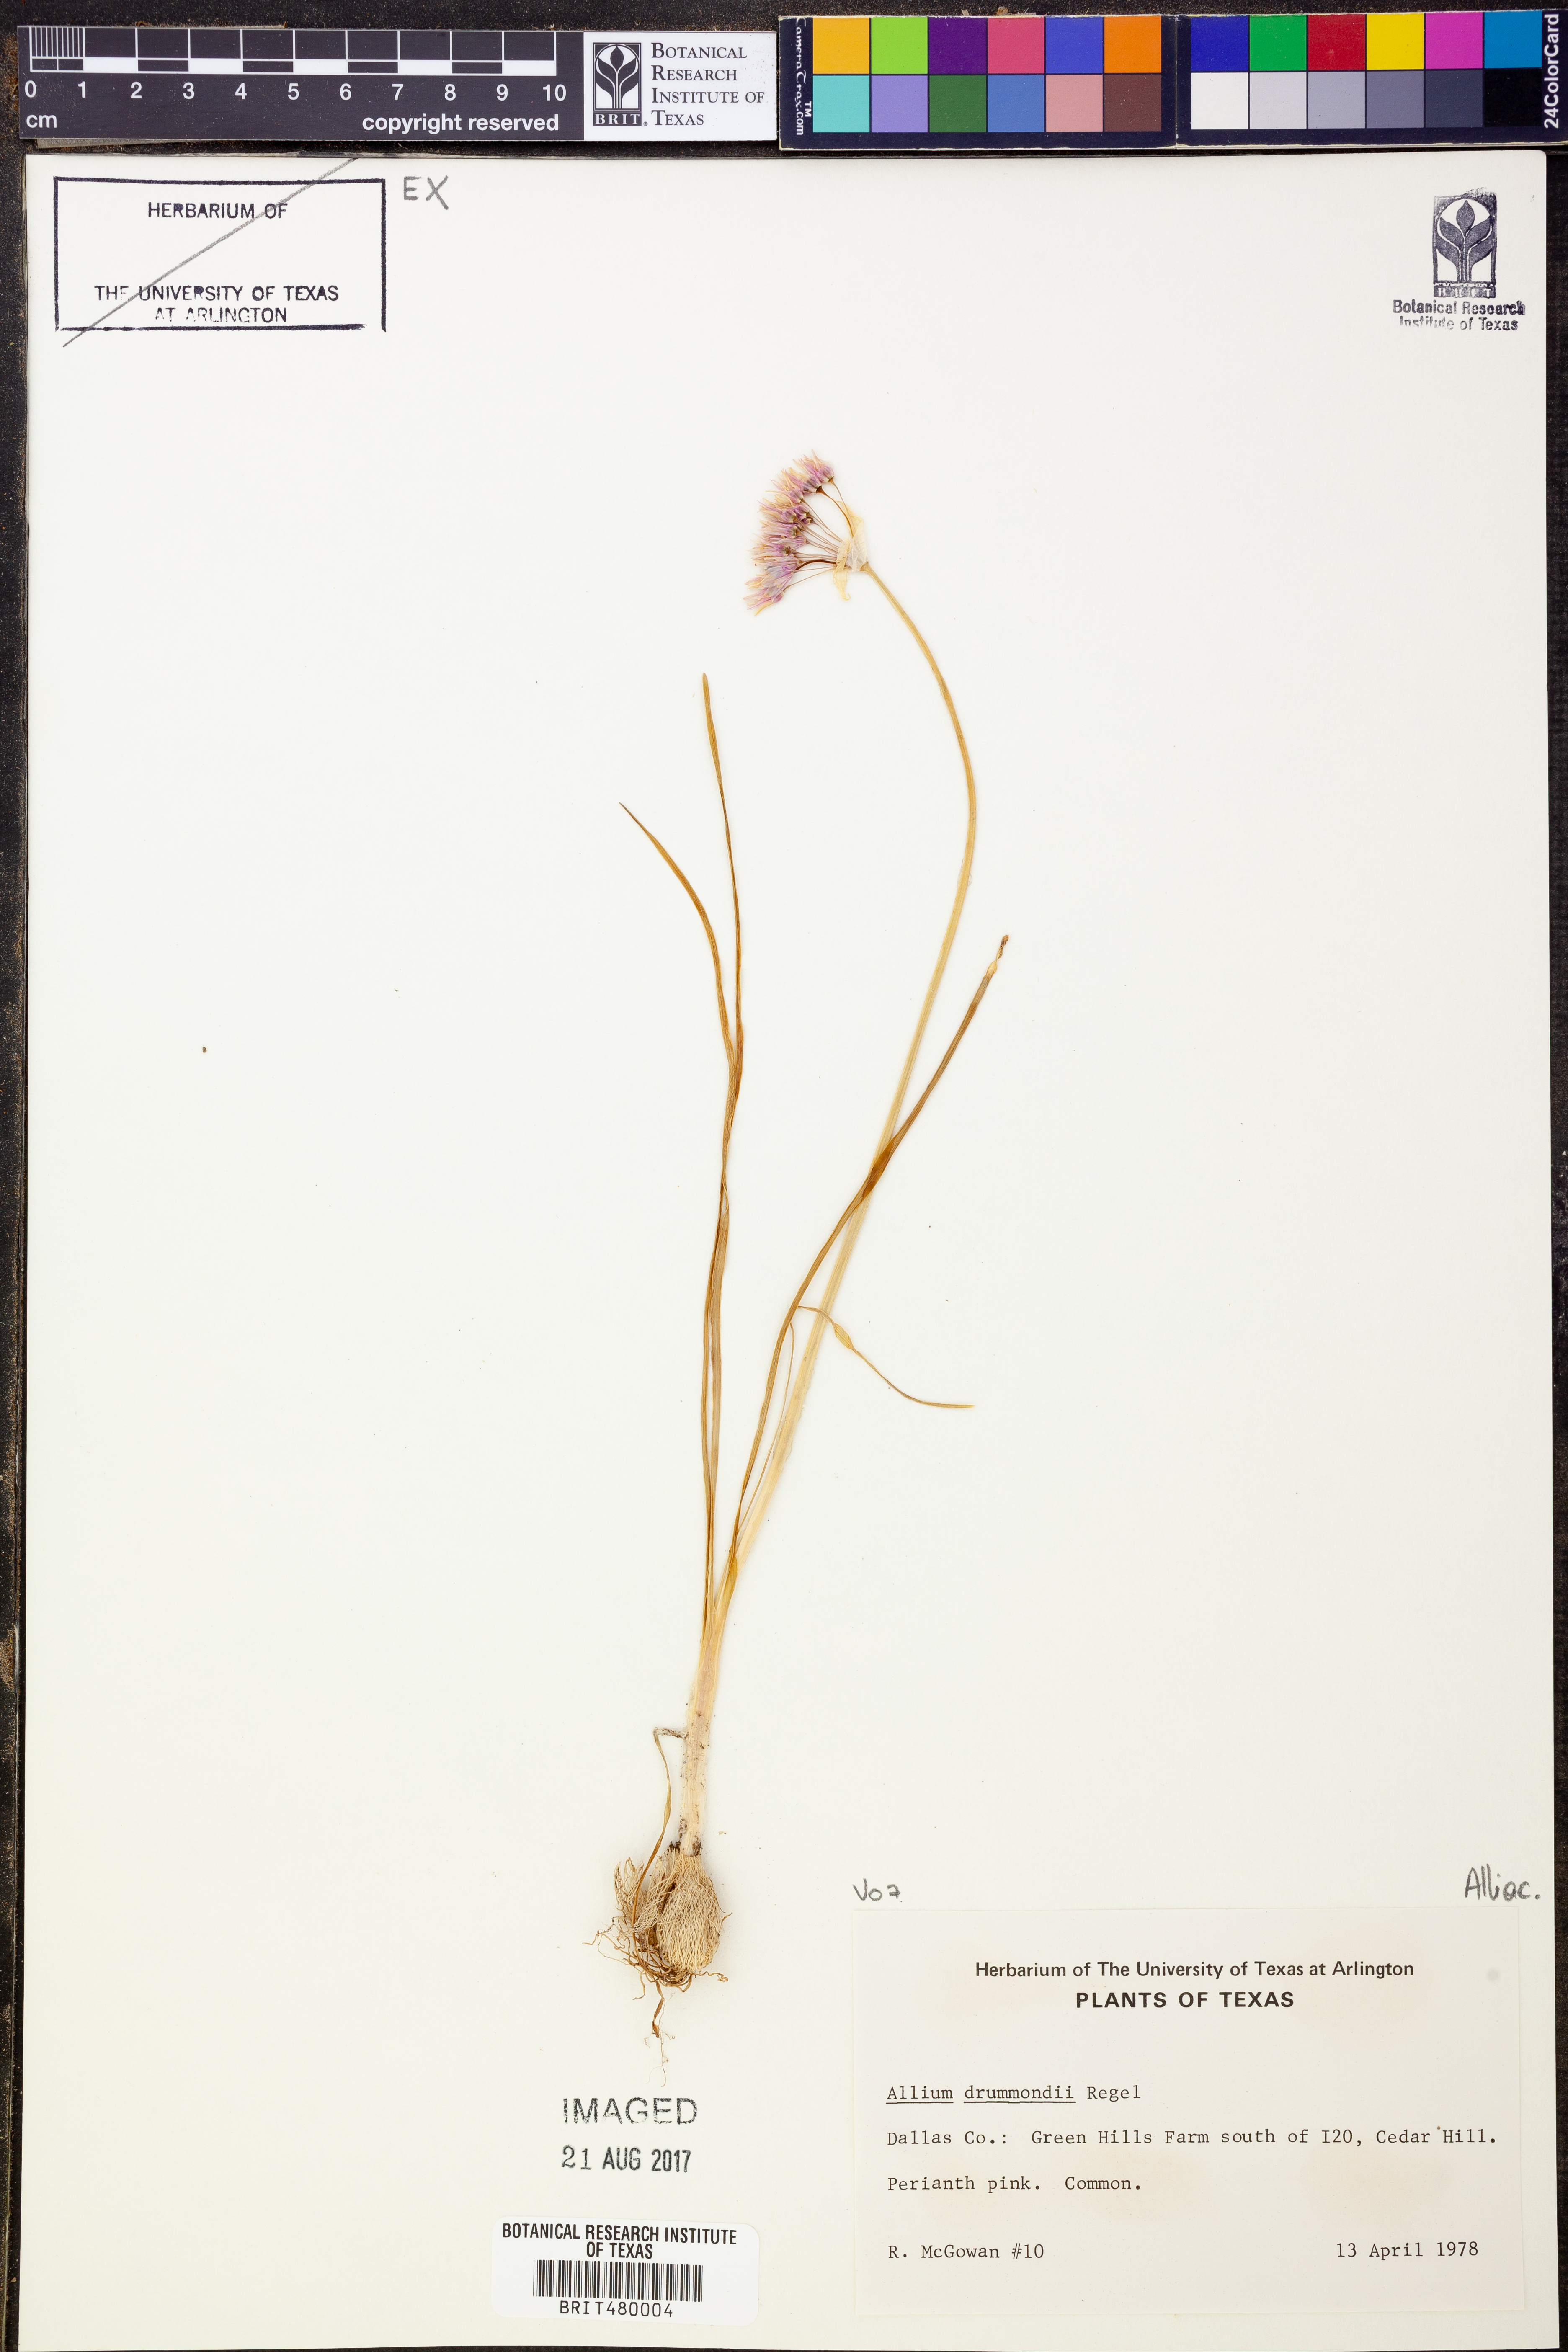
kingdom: Plantae
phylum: Tracheophyta
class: Liliopsida
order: Asparagales
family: Amaryllidaceae
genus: Allium
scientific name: Allium drummondii
